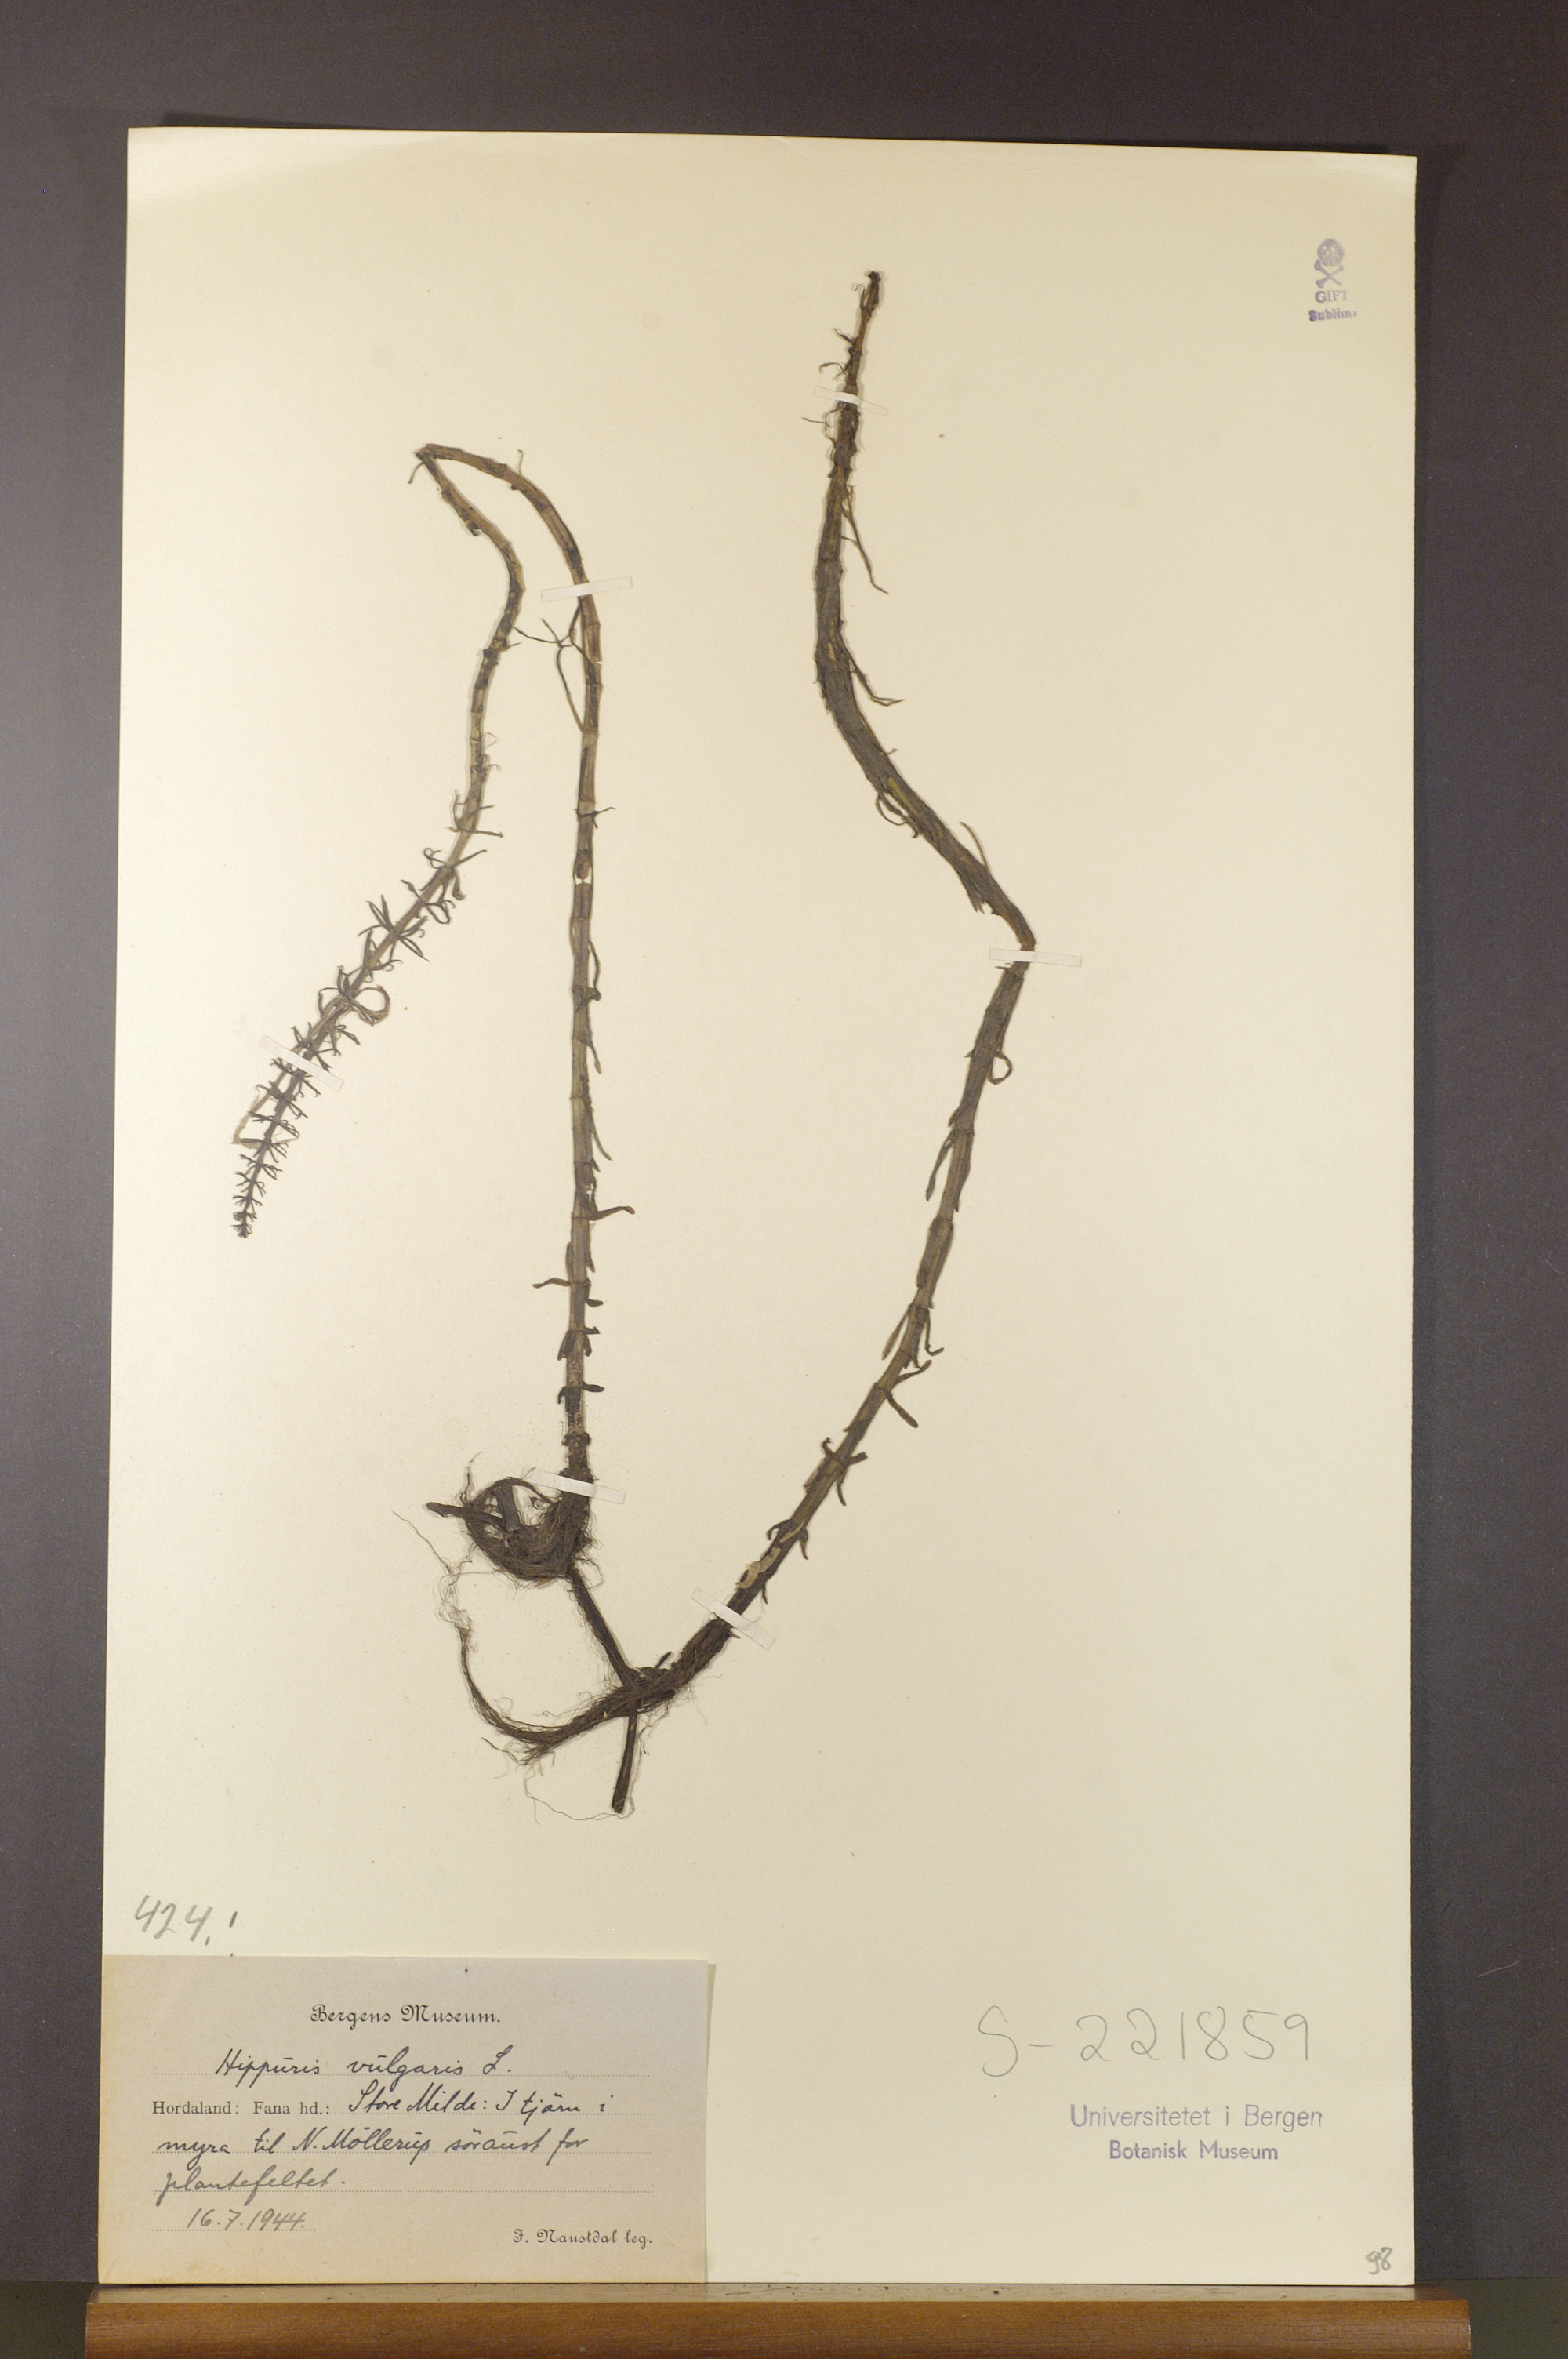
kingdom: Plantae
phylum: Tracheophyta
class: Magnoliopsida
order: Lamiales
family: Plantaginaceae
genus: Hippuris
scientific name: Hippuris vulgaris
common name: Mare's-tail
